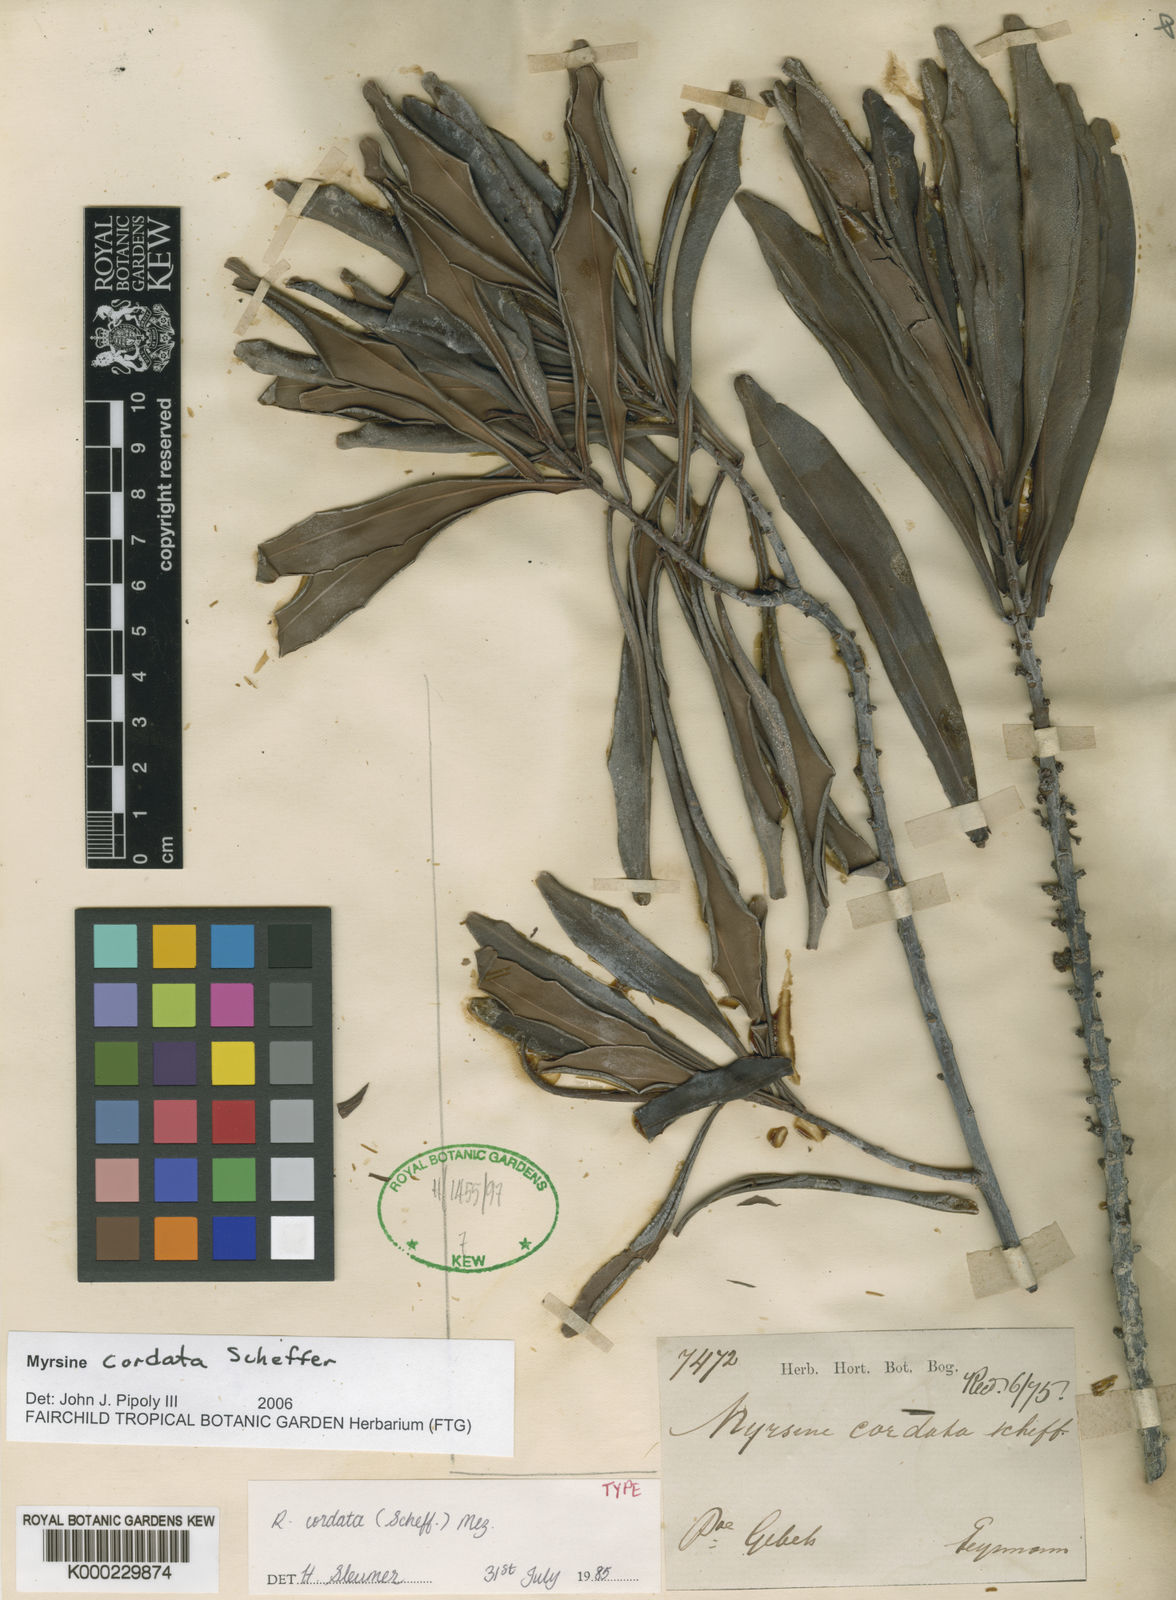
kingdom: Plantae
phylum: Tracheophyta
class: Magnoliopsida
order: Ericales
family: Primulaceae
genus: Myrsine
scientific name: Myrsine cordata
